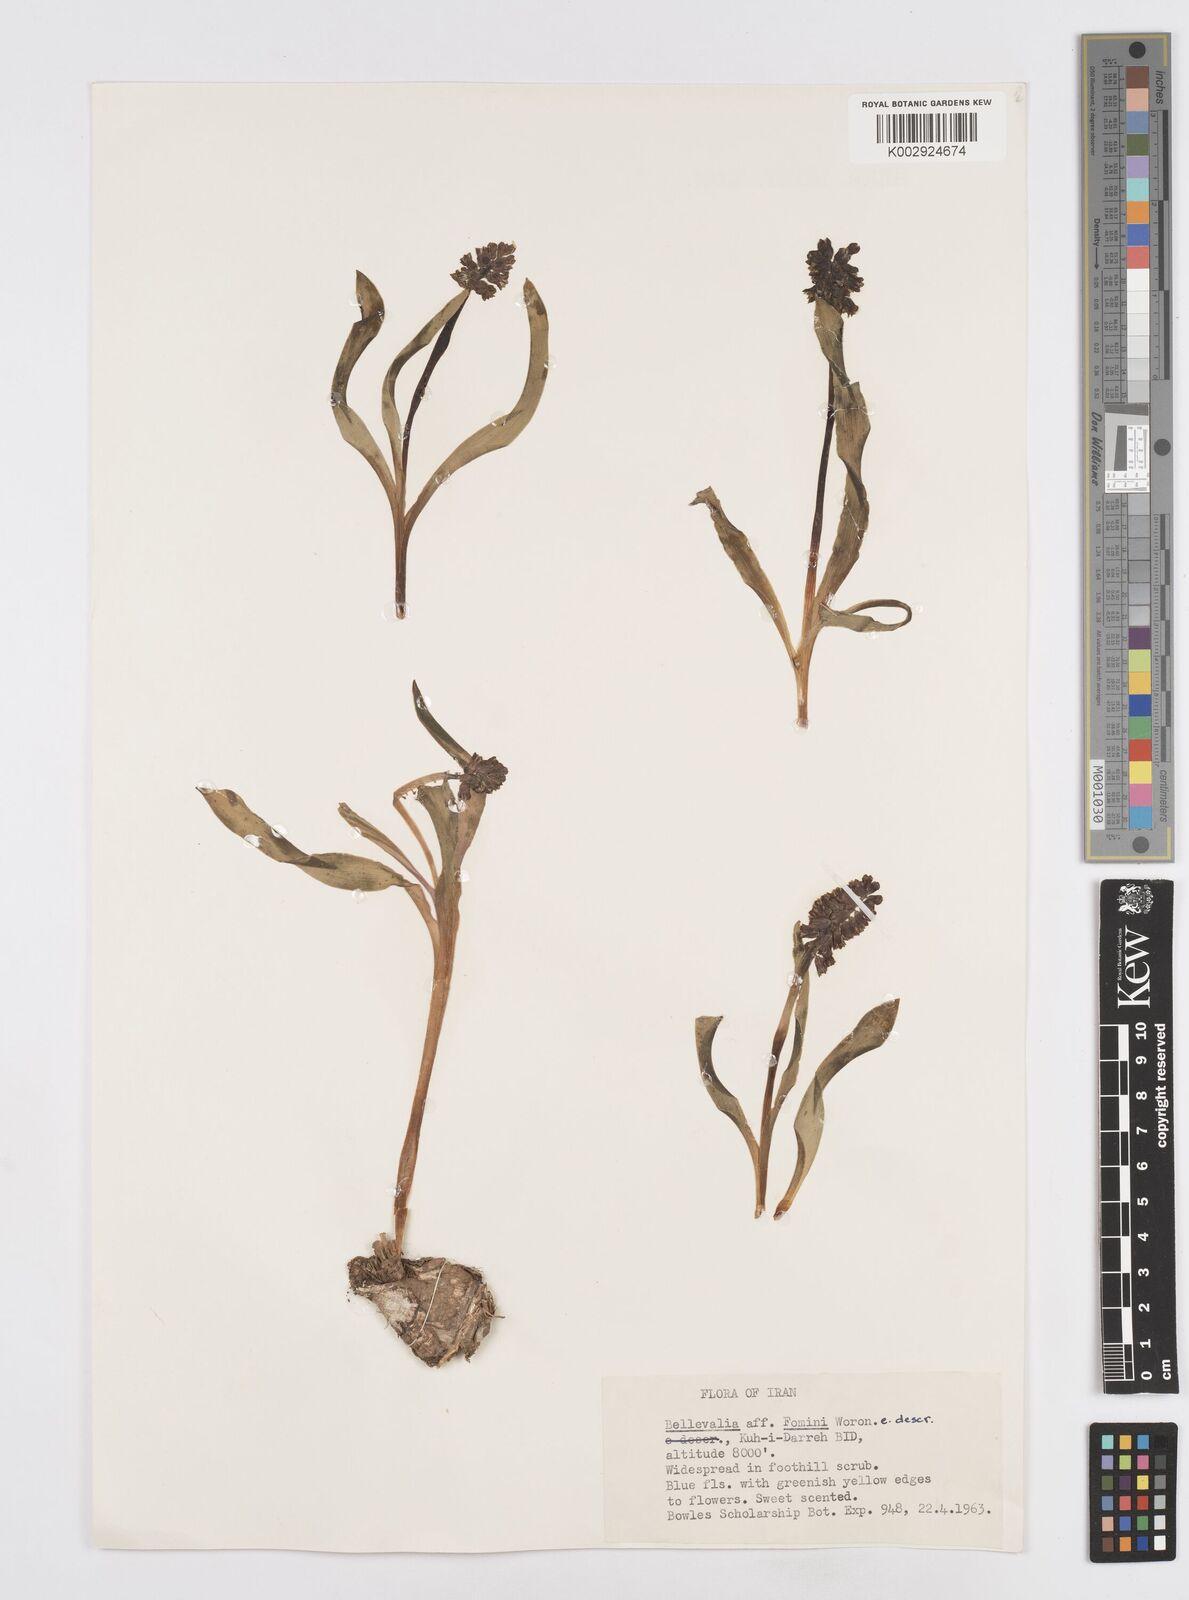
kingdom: Plantae
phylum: Tracheophyta
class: Liliopsida
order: Asparagales
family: Asparagaceae
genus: Bellevalia
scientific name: Bellevalia tristis
